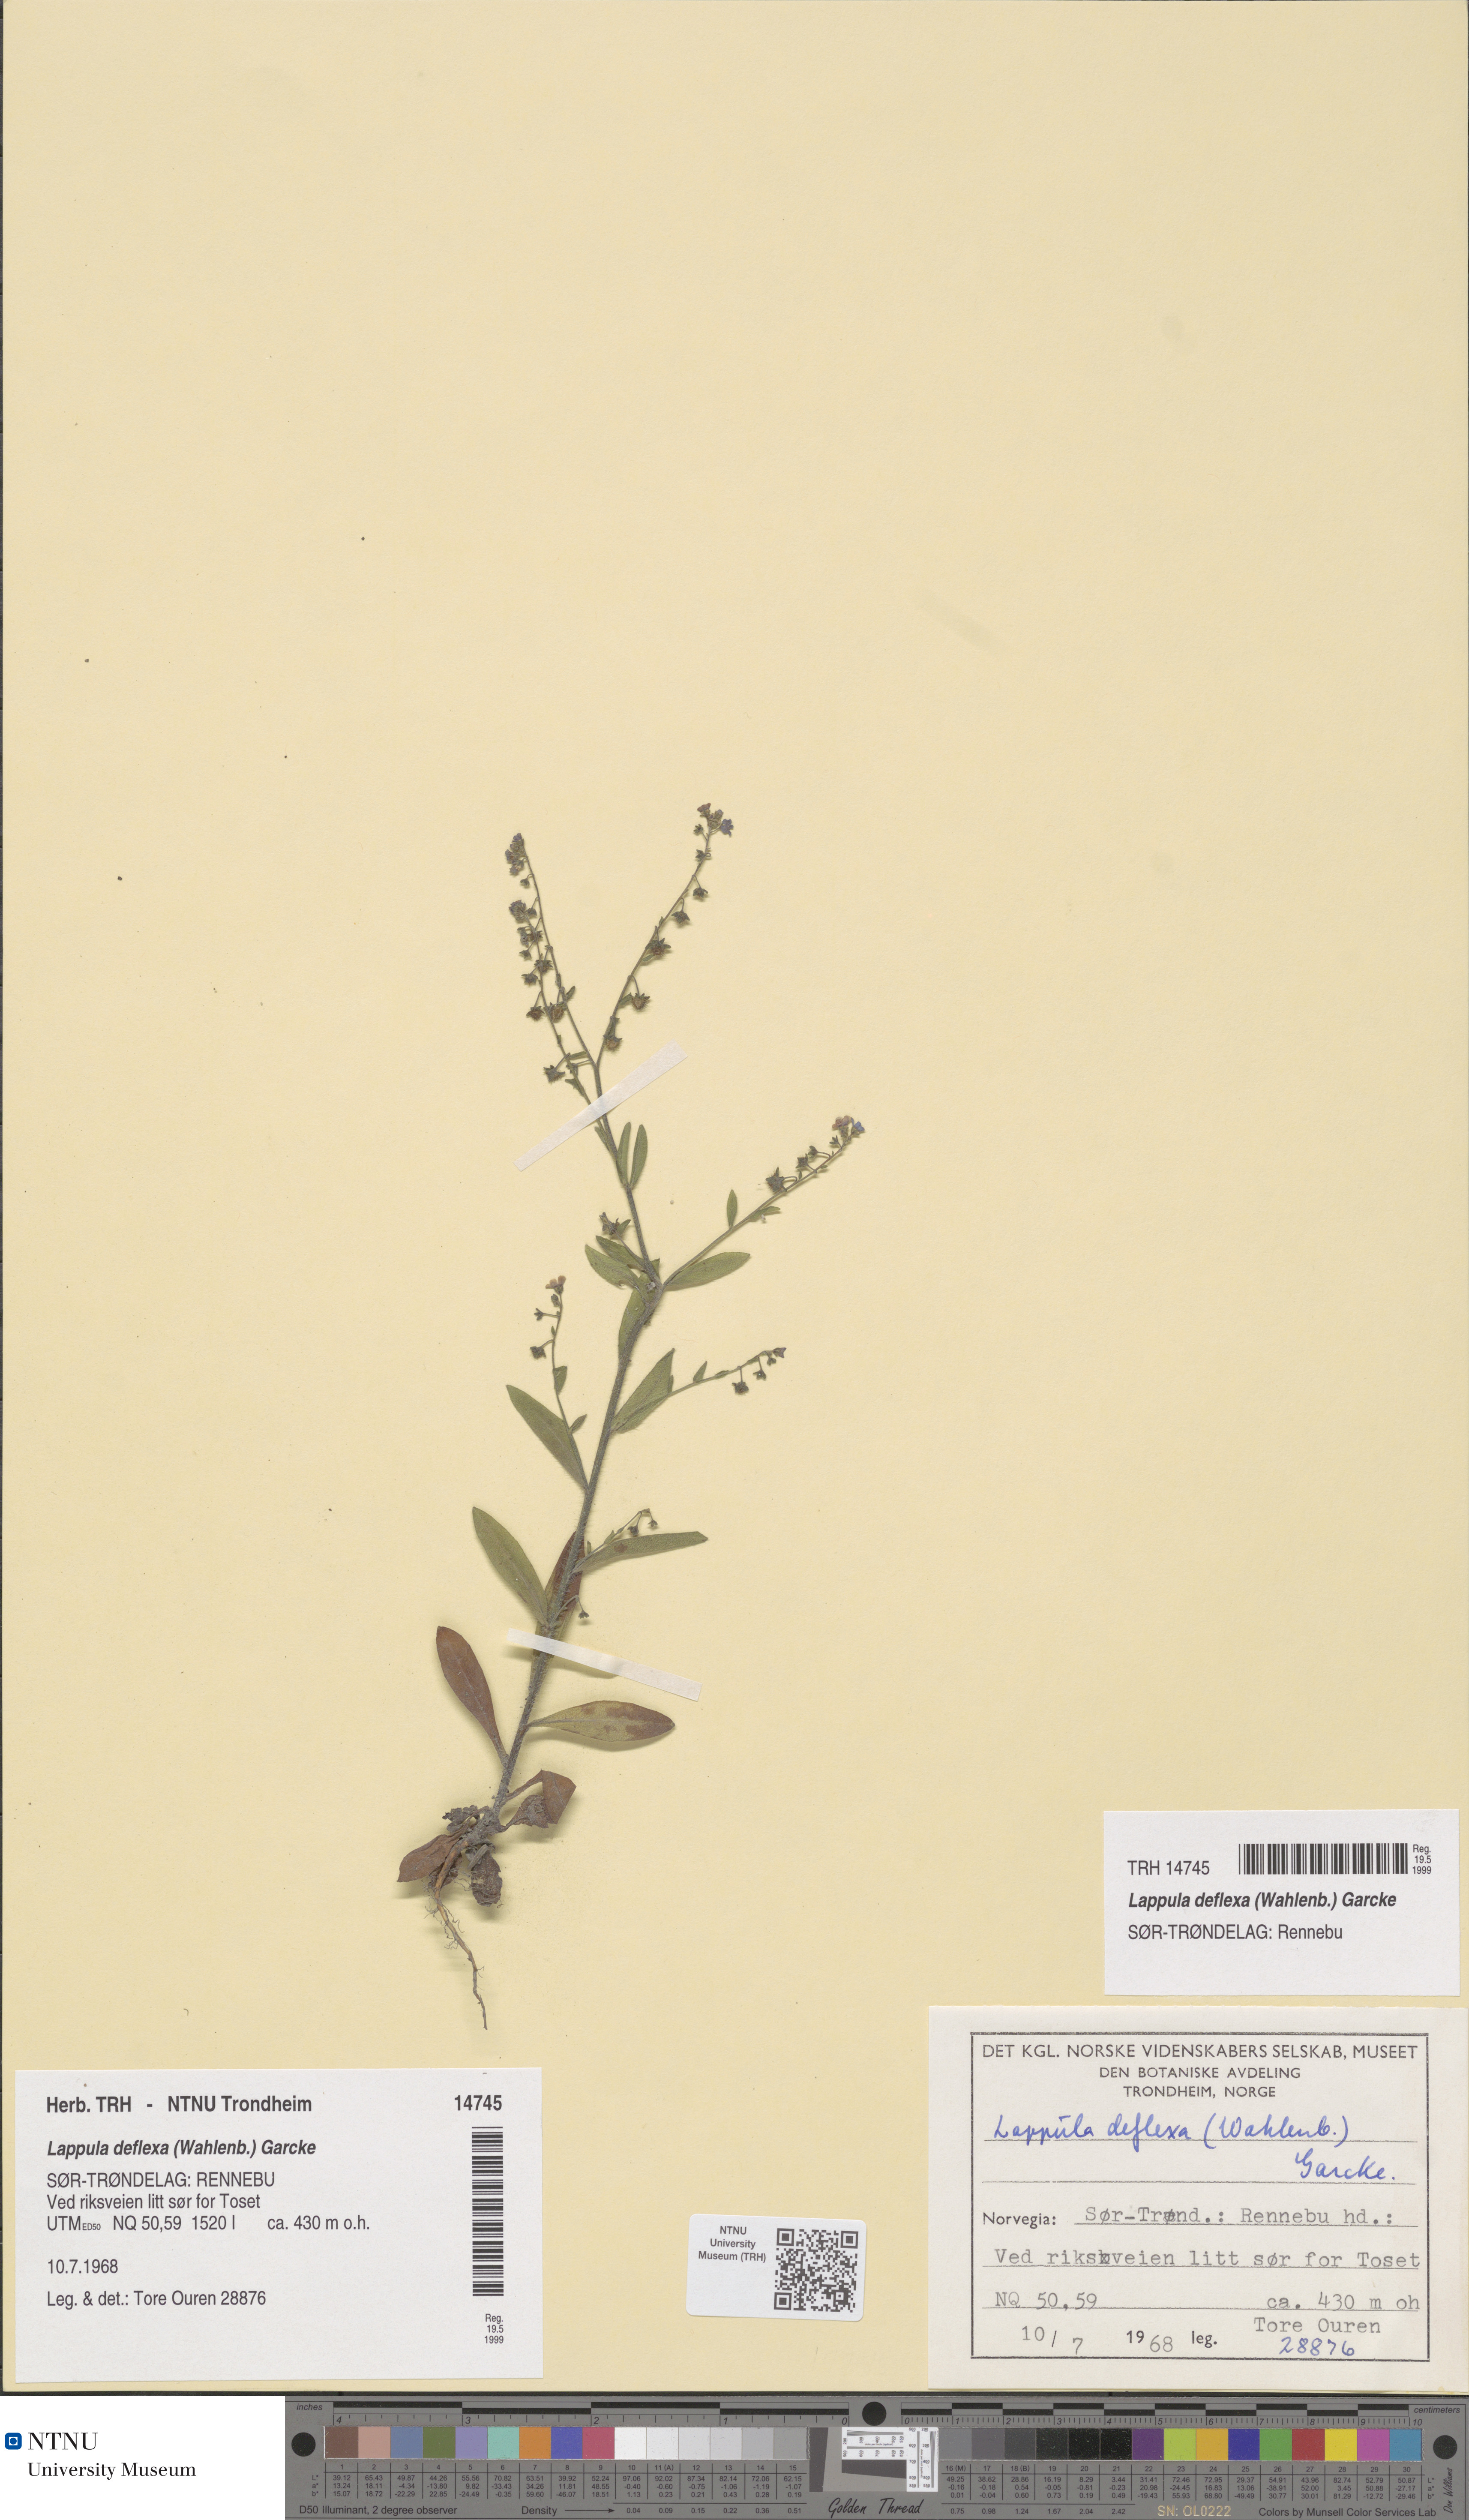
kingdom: Plantae
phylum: Tracheophyta
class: Magnoliopsida
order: Boraginales
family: Boraginaceae
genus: Hackelia
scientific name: Hackelia deflexa
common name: Nodding stickseed
